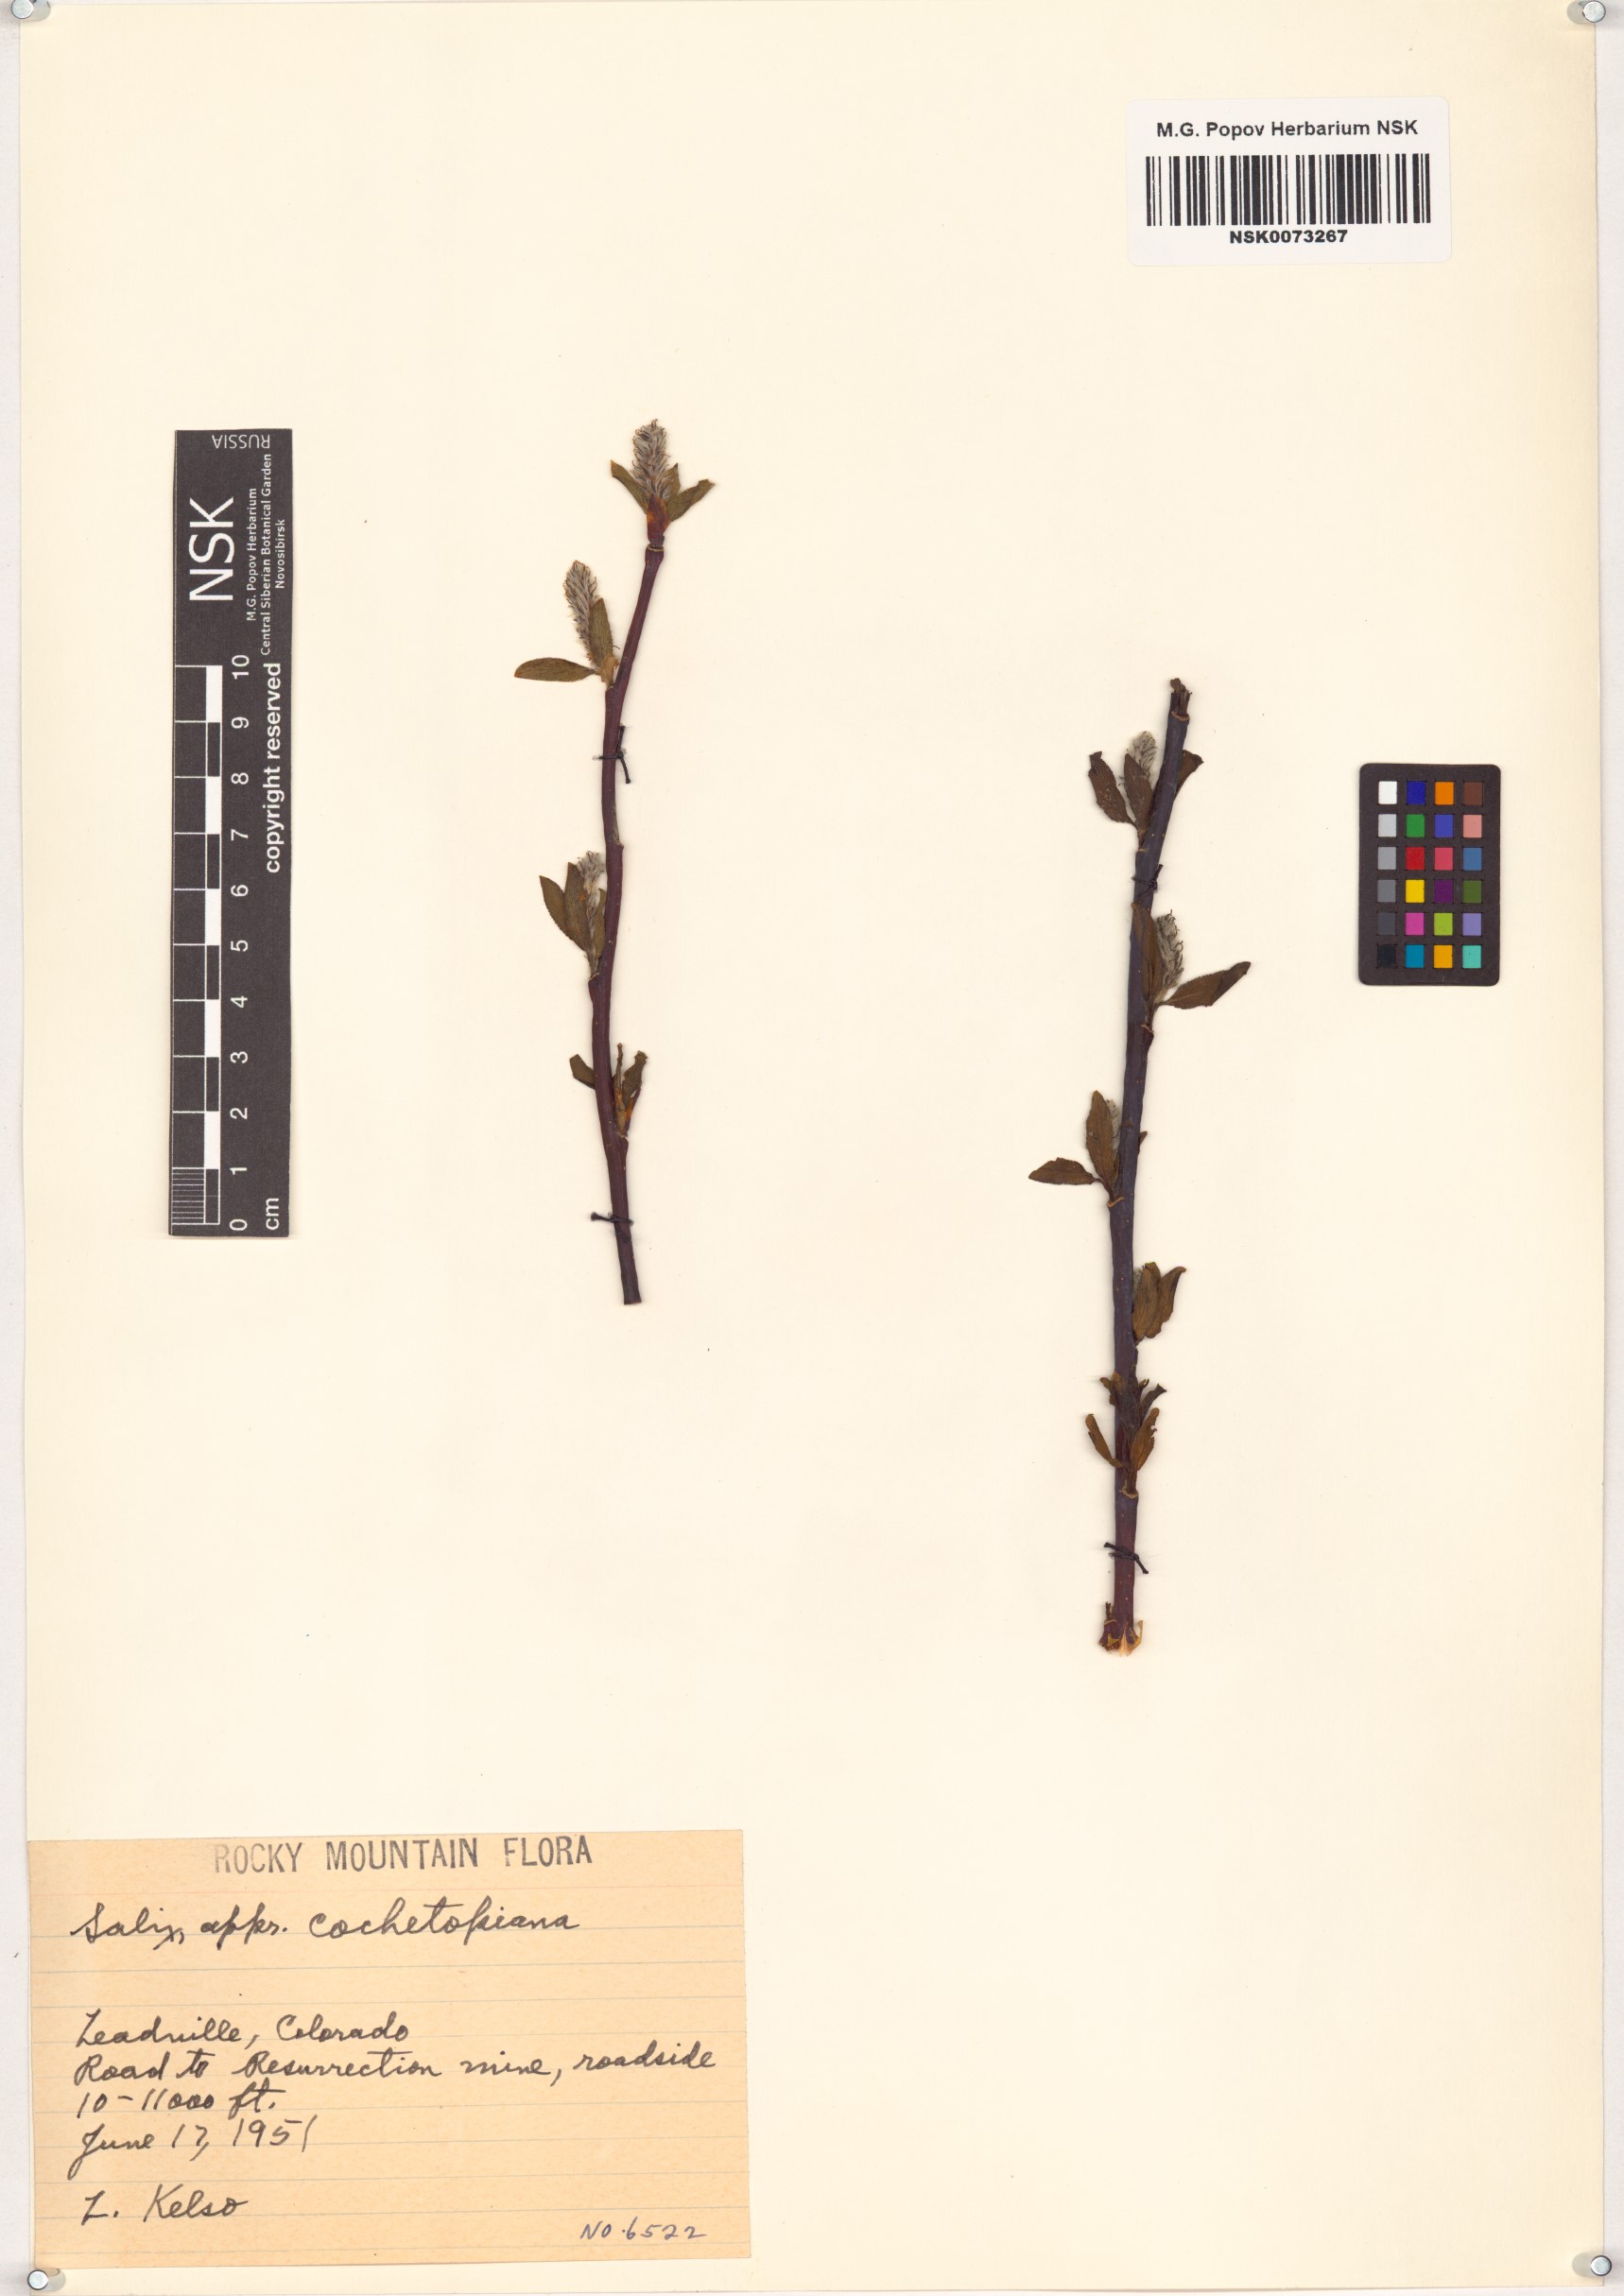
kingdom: Plantae
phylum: Tracheophyta
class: Magnoliopsida
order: Malpighiales
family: Salicaceae
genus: Salix
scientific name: Salix monticola
